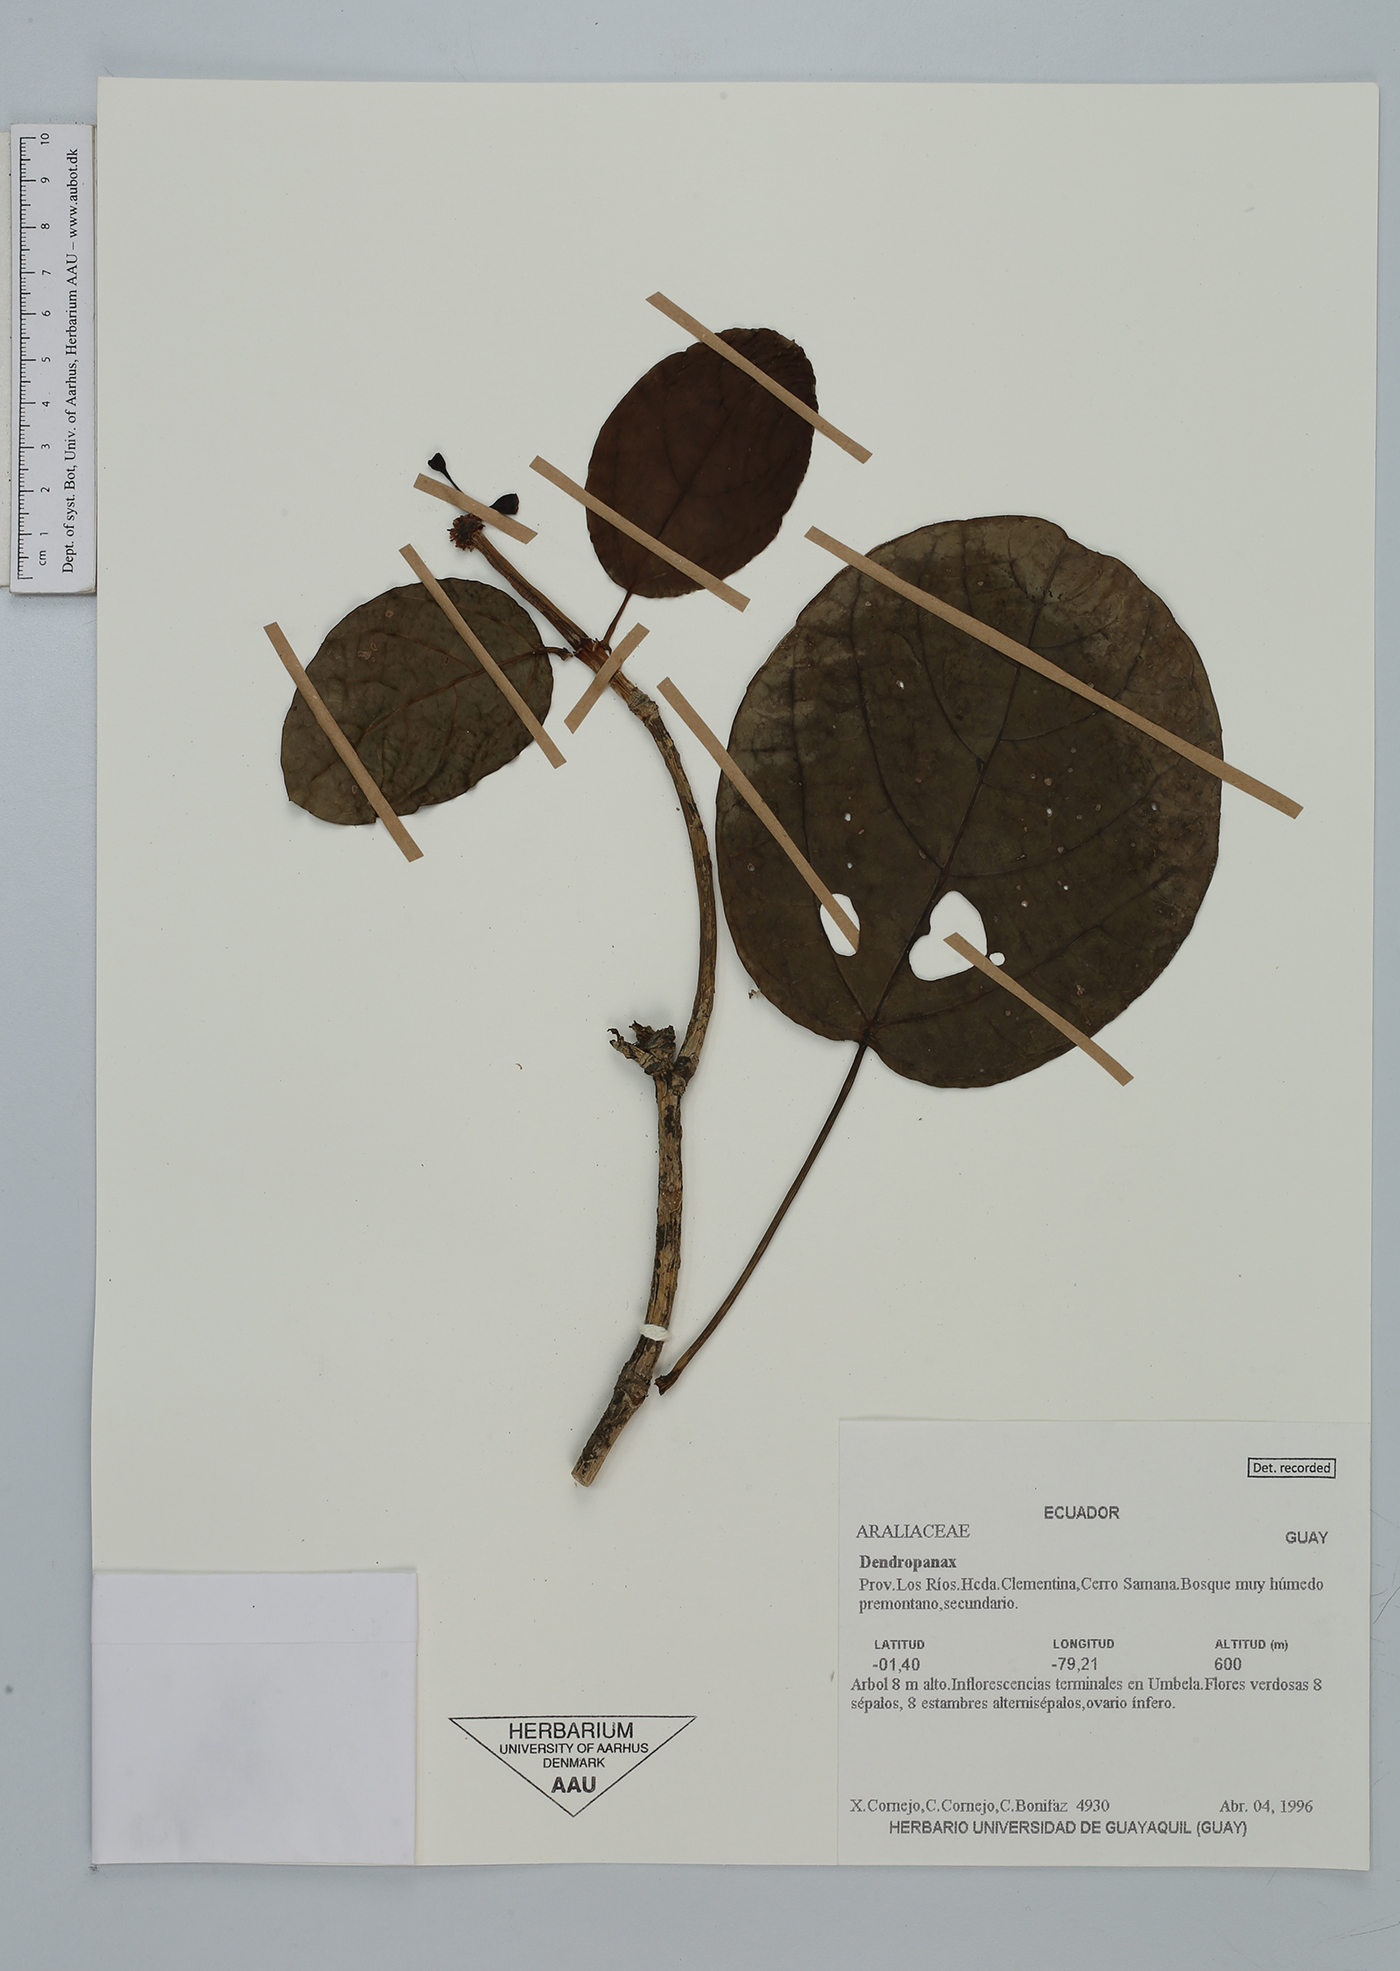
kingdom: Plantae
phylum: Tracheophyta
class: Magnoliopsida
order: Apiales
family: Araliaceae
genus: Dendropanax
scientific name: Dendropanax
